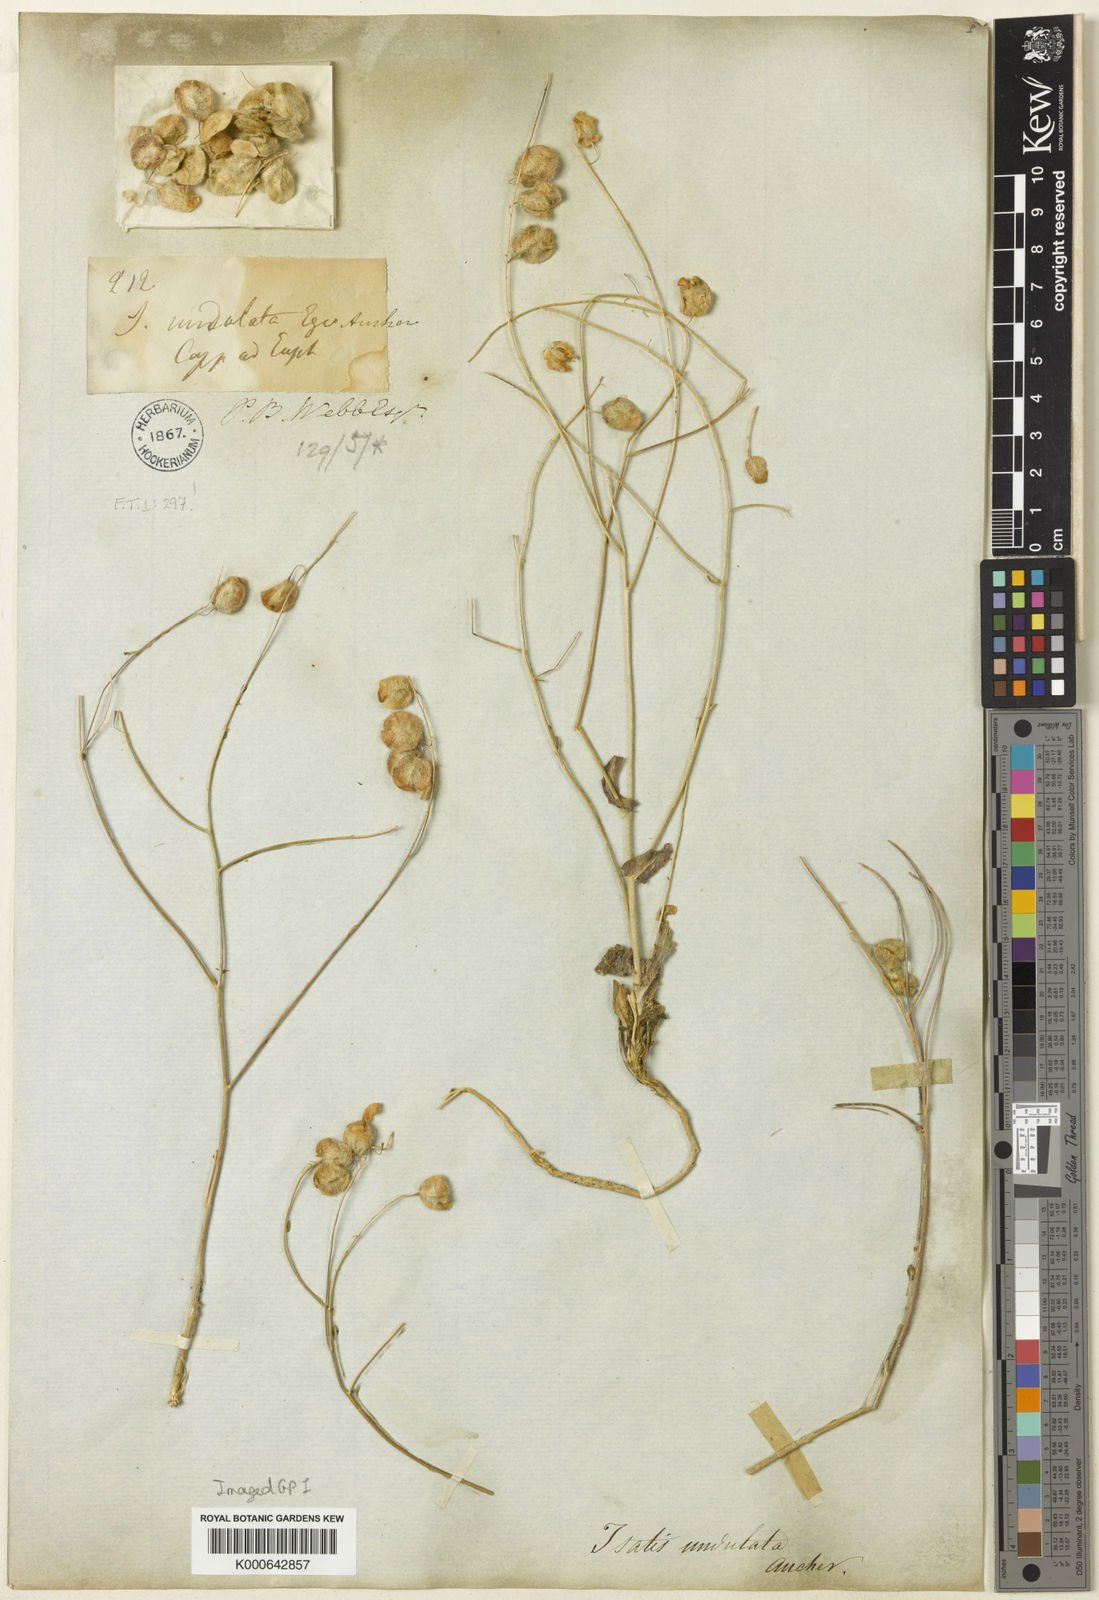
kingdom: Plantae
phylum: Tracheophyta
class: Magnoliopsida
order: Brassicales
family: Brassicaceae
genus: Isatis
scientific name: Isatis undulata
